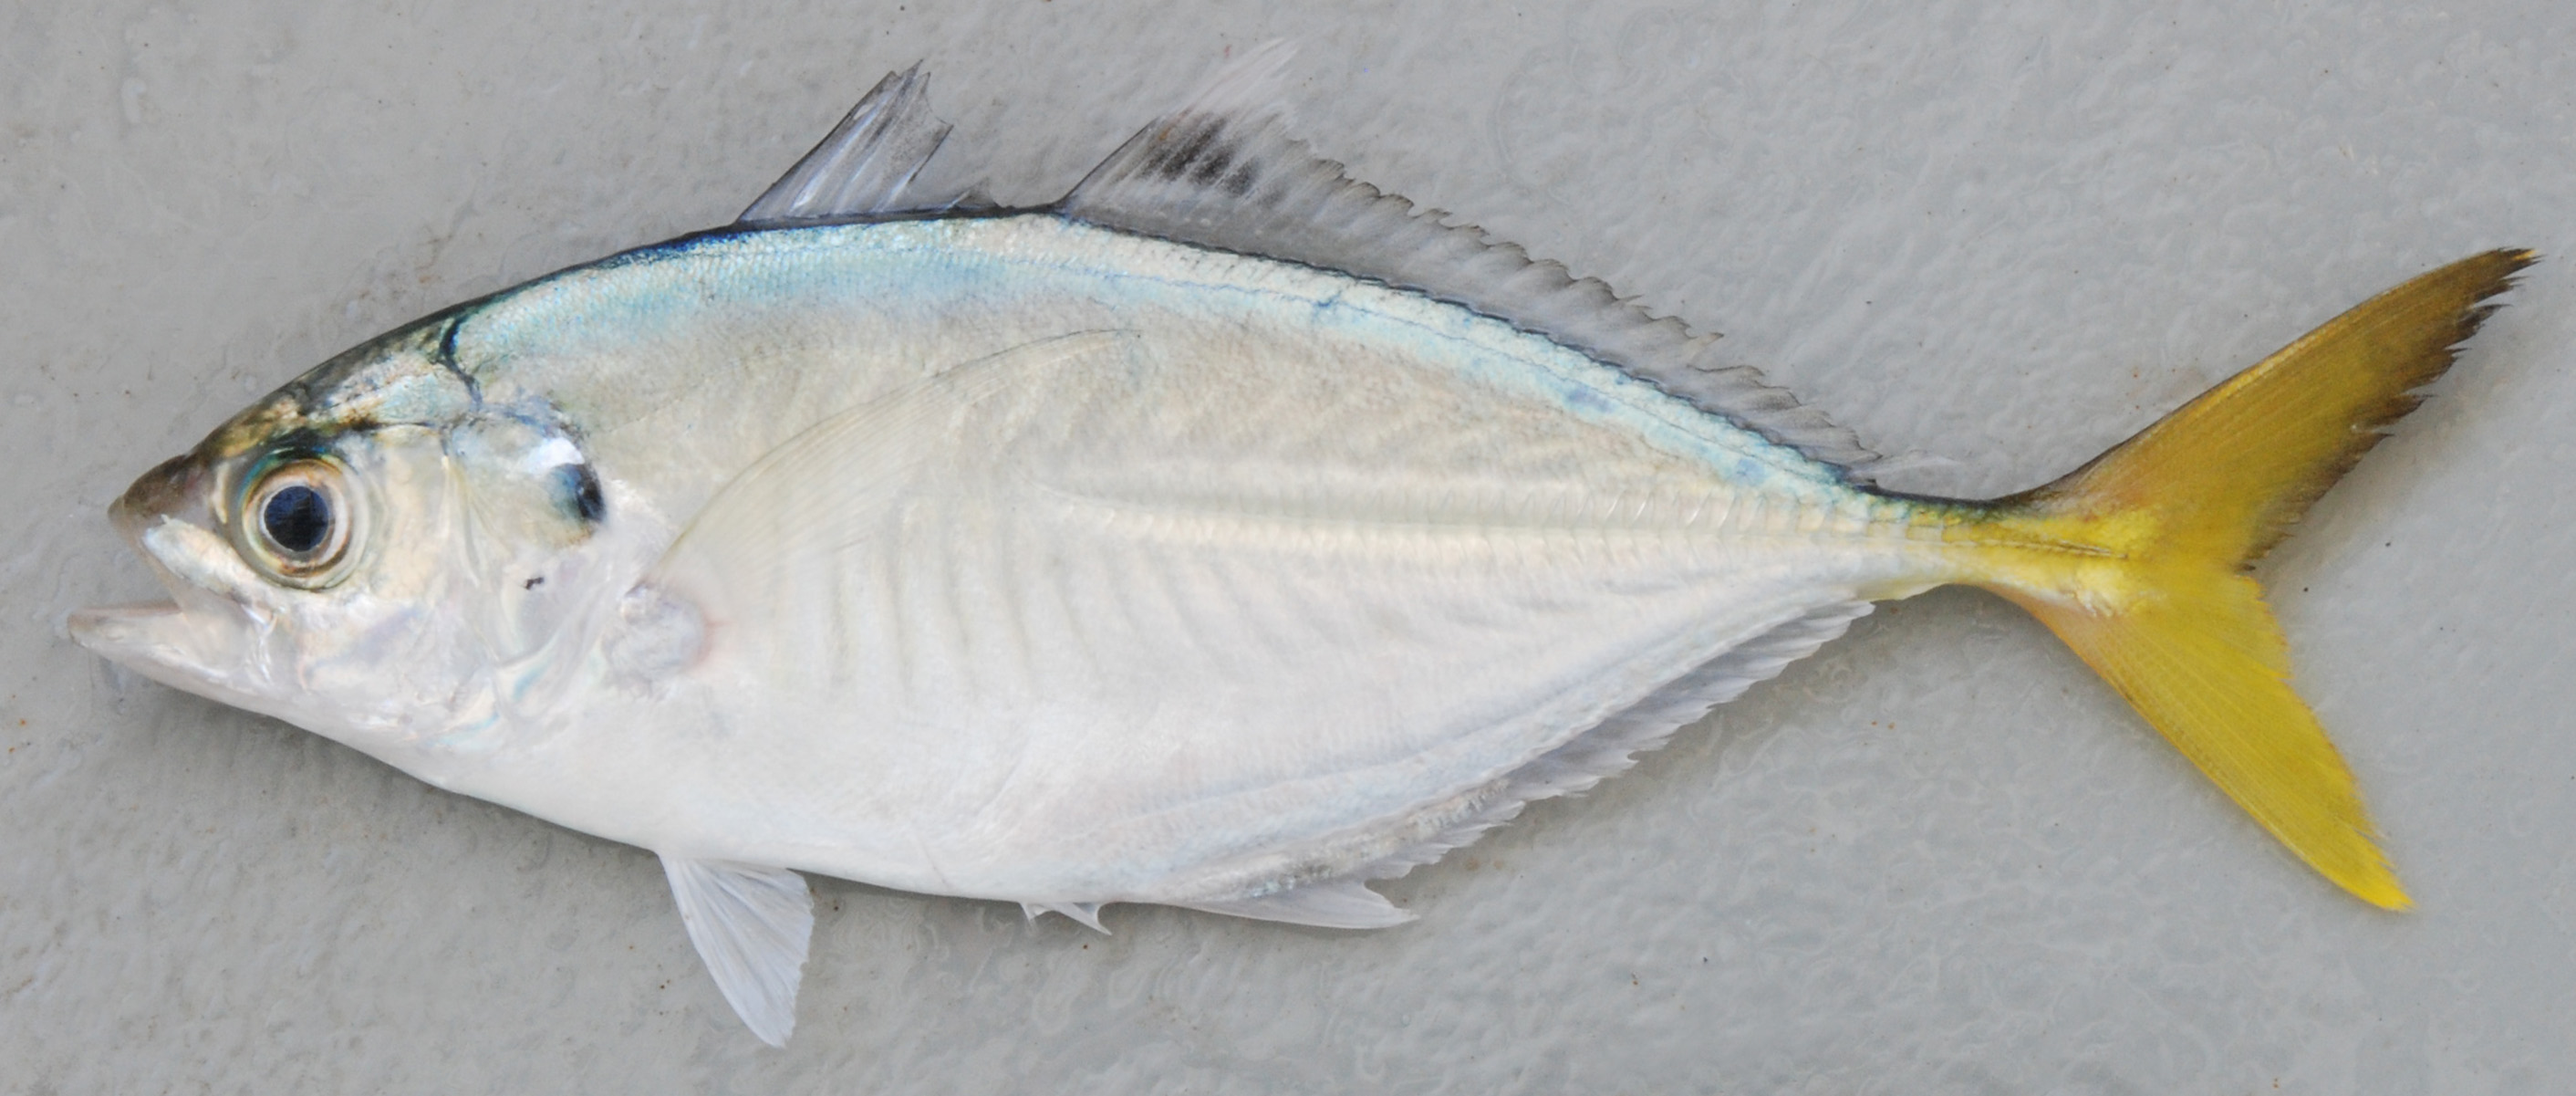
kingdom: Animalia
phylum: Chordata
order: Perciformes
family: Carangidae
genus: Alepes
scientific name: Alepes djedaba
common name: Shrimp scad
